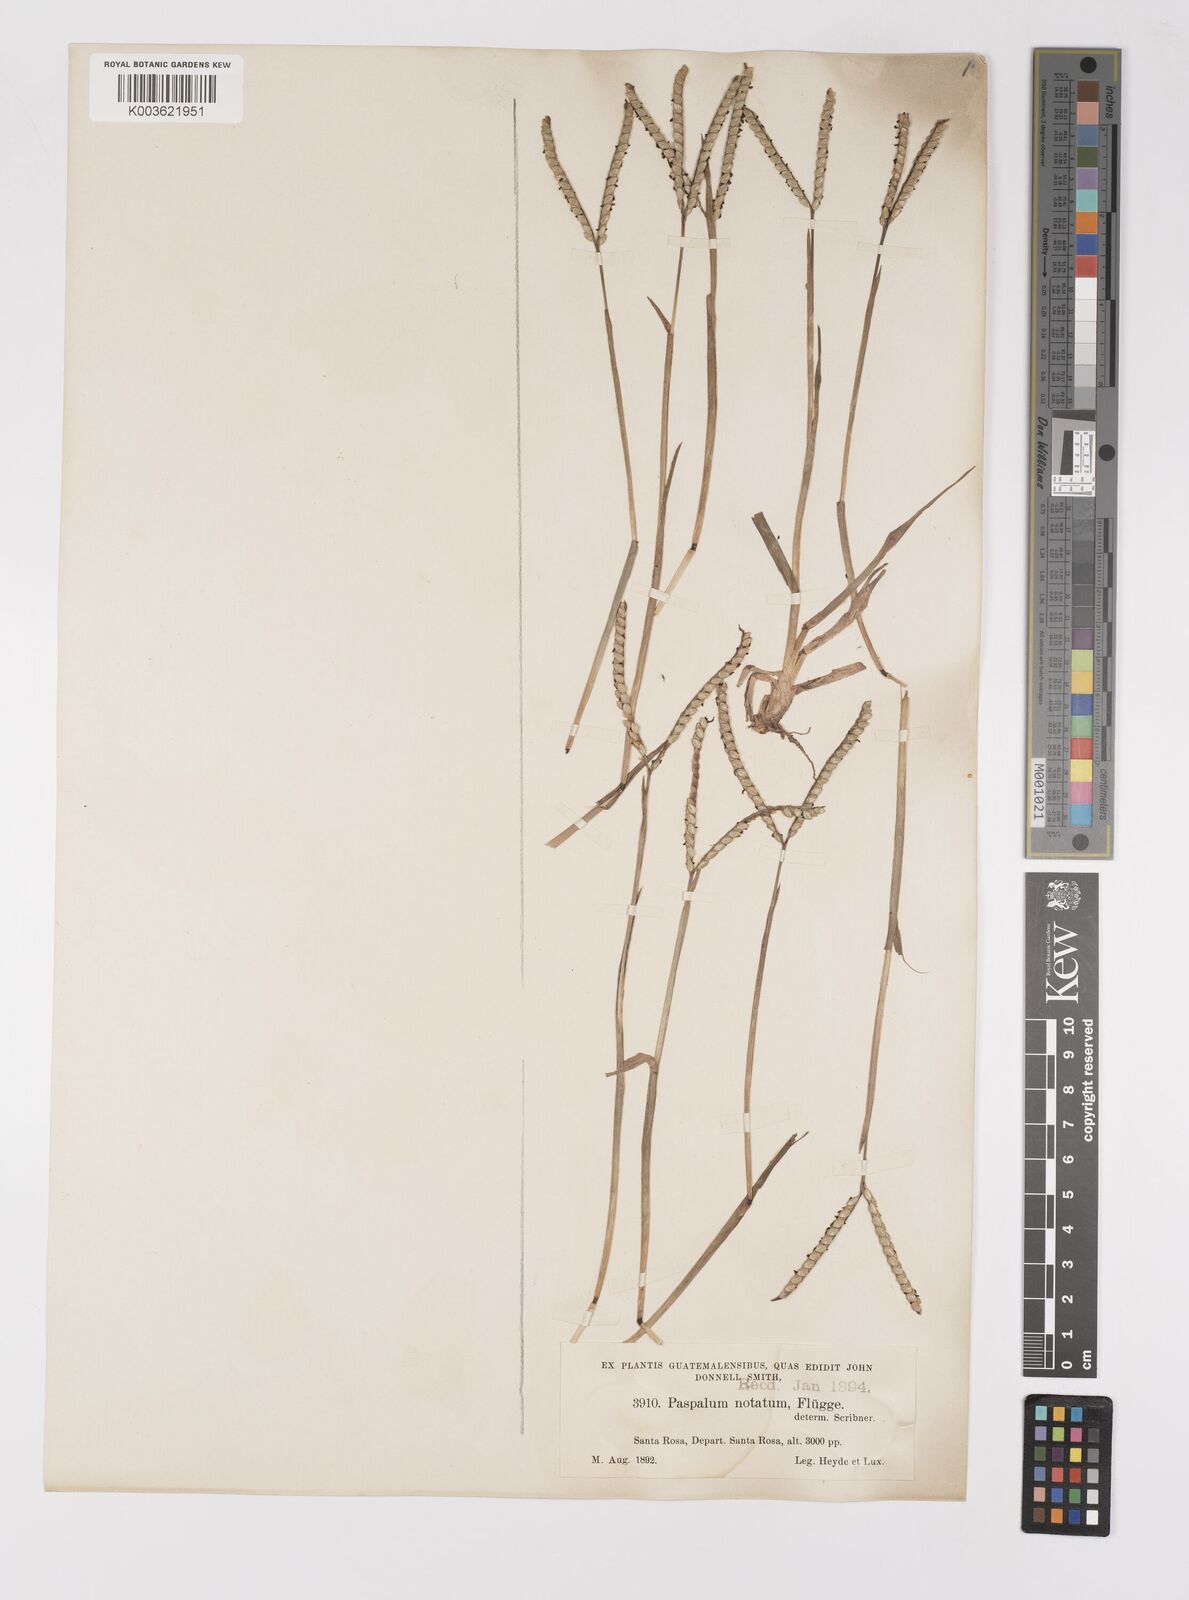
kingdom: Plantae
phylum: Tracheophyta
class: Liliopsida
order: Poales
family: Poaceae
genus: Paspalum
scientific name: Paspalum notatum
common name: Bahiagrass
